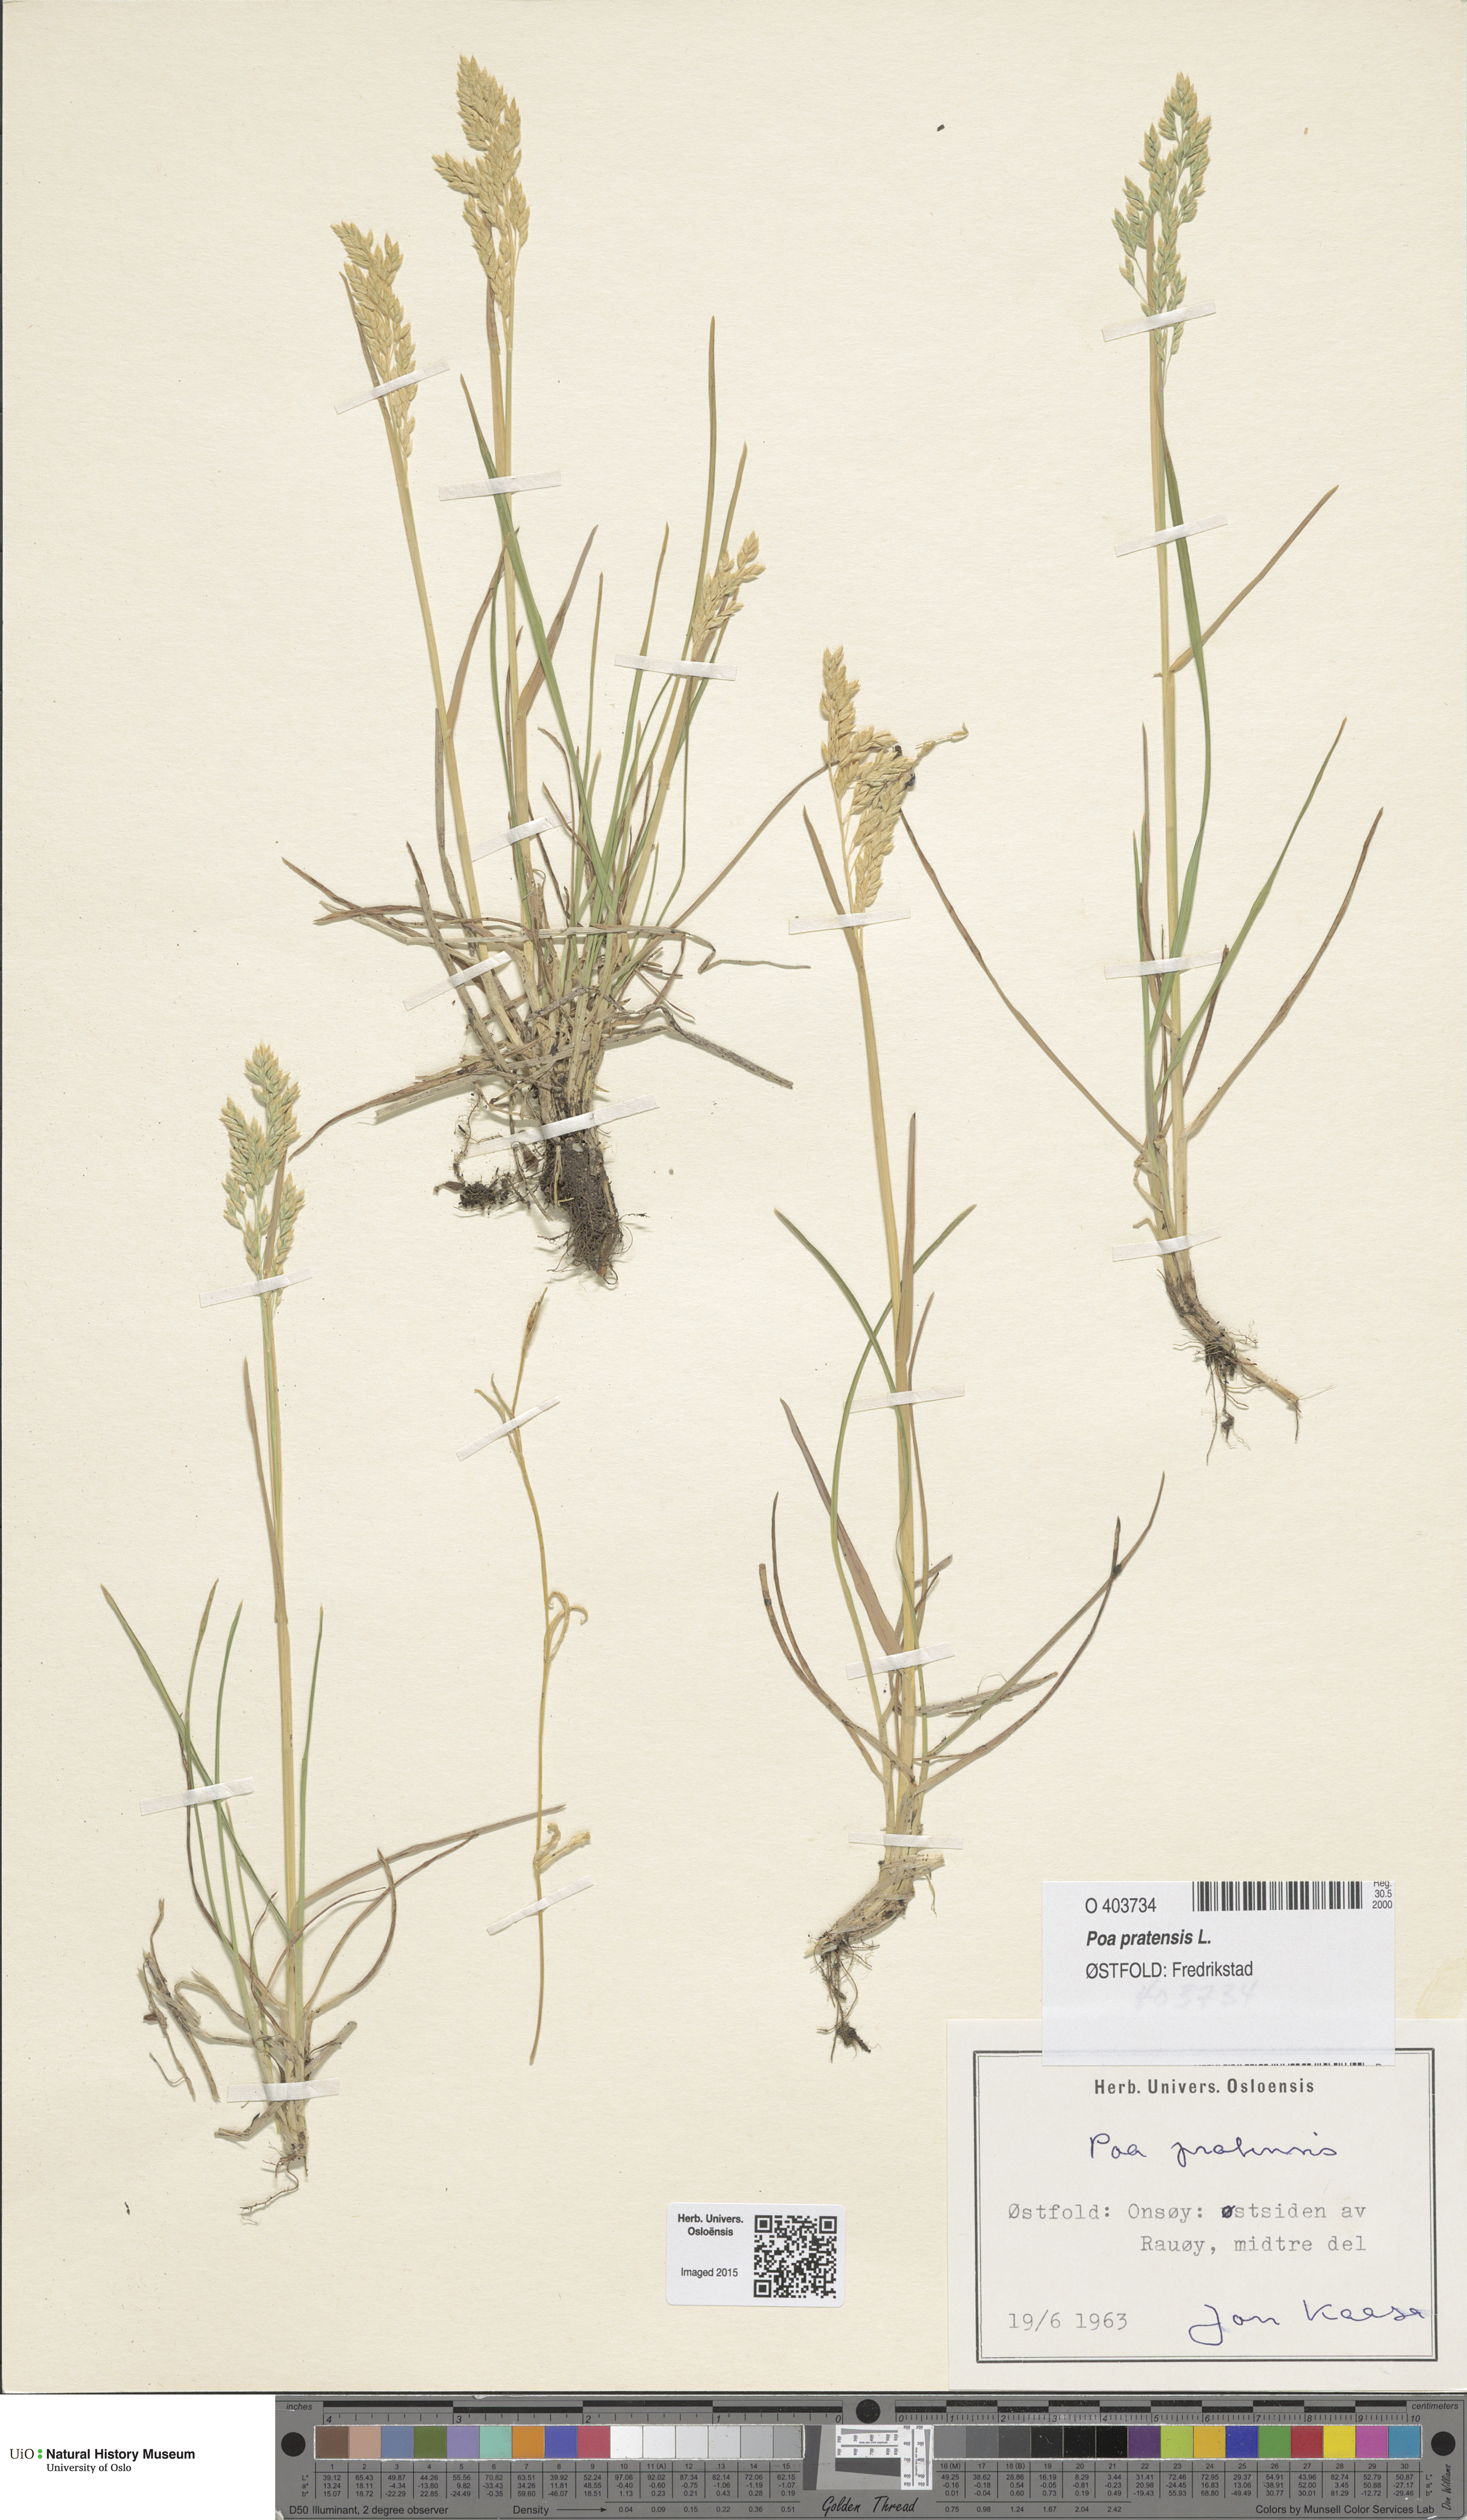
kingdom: Plantae
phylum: Tracheophyta
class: Liliopsida
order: Poales
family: Poaceae
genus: Poa
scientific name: Poa pratensis
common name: Kentucky bluegrass
